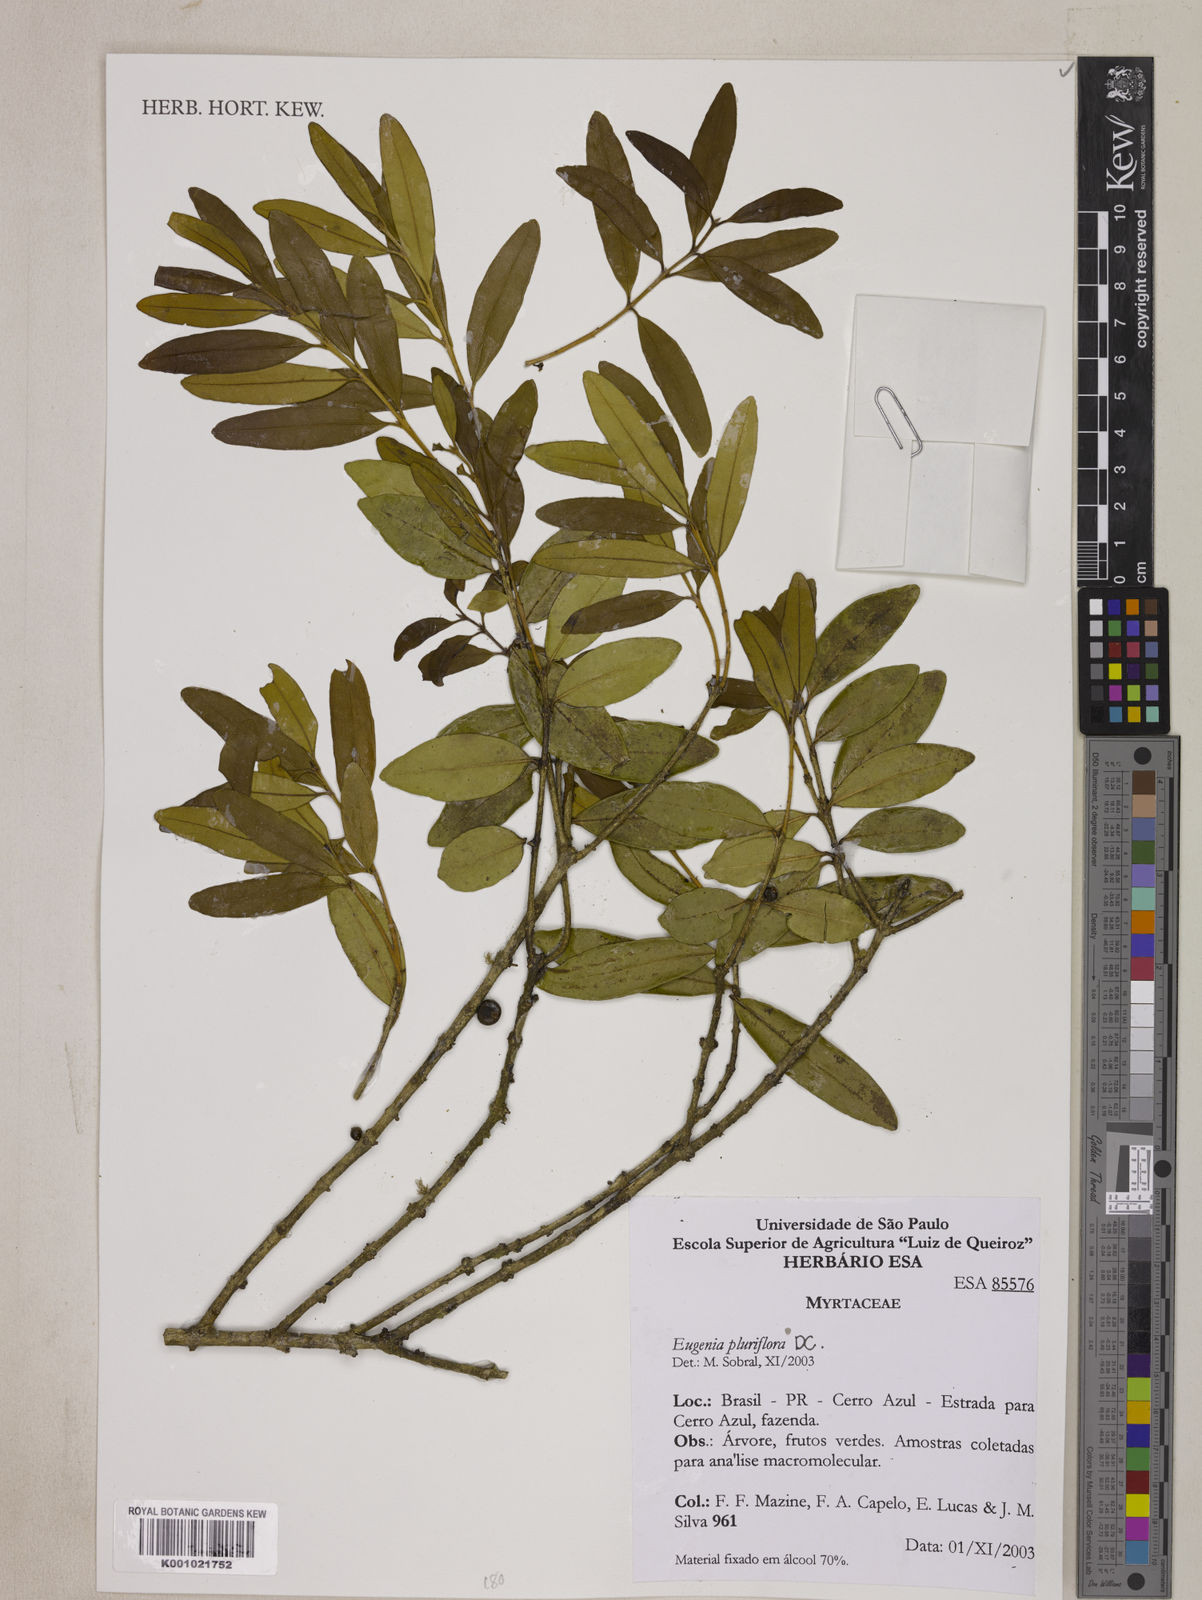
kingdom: Plantae
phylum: Tracheophyta
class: Magnoliopsida
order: Myrtales
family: Myrtaceae
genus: Eugenia
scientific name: Eugenia pluriflora
